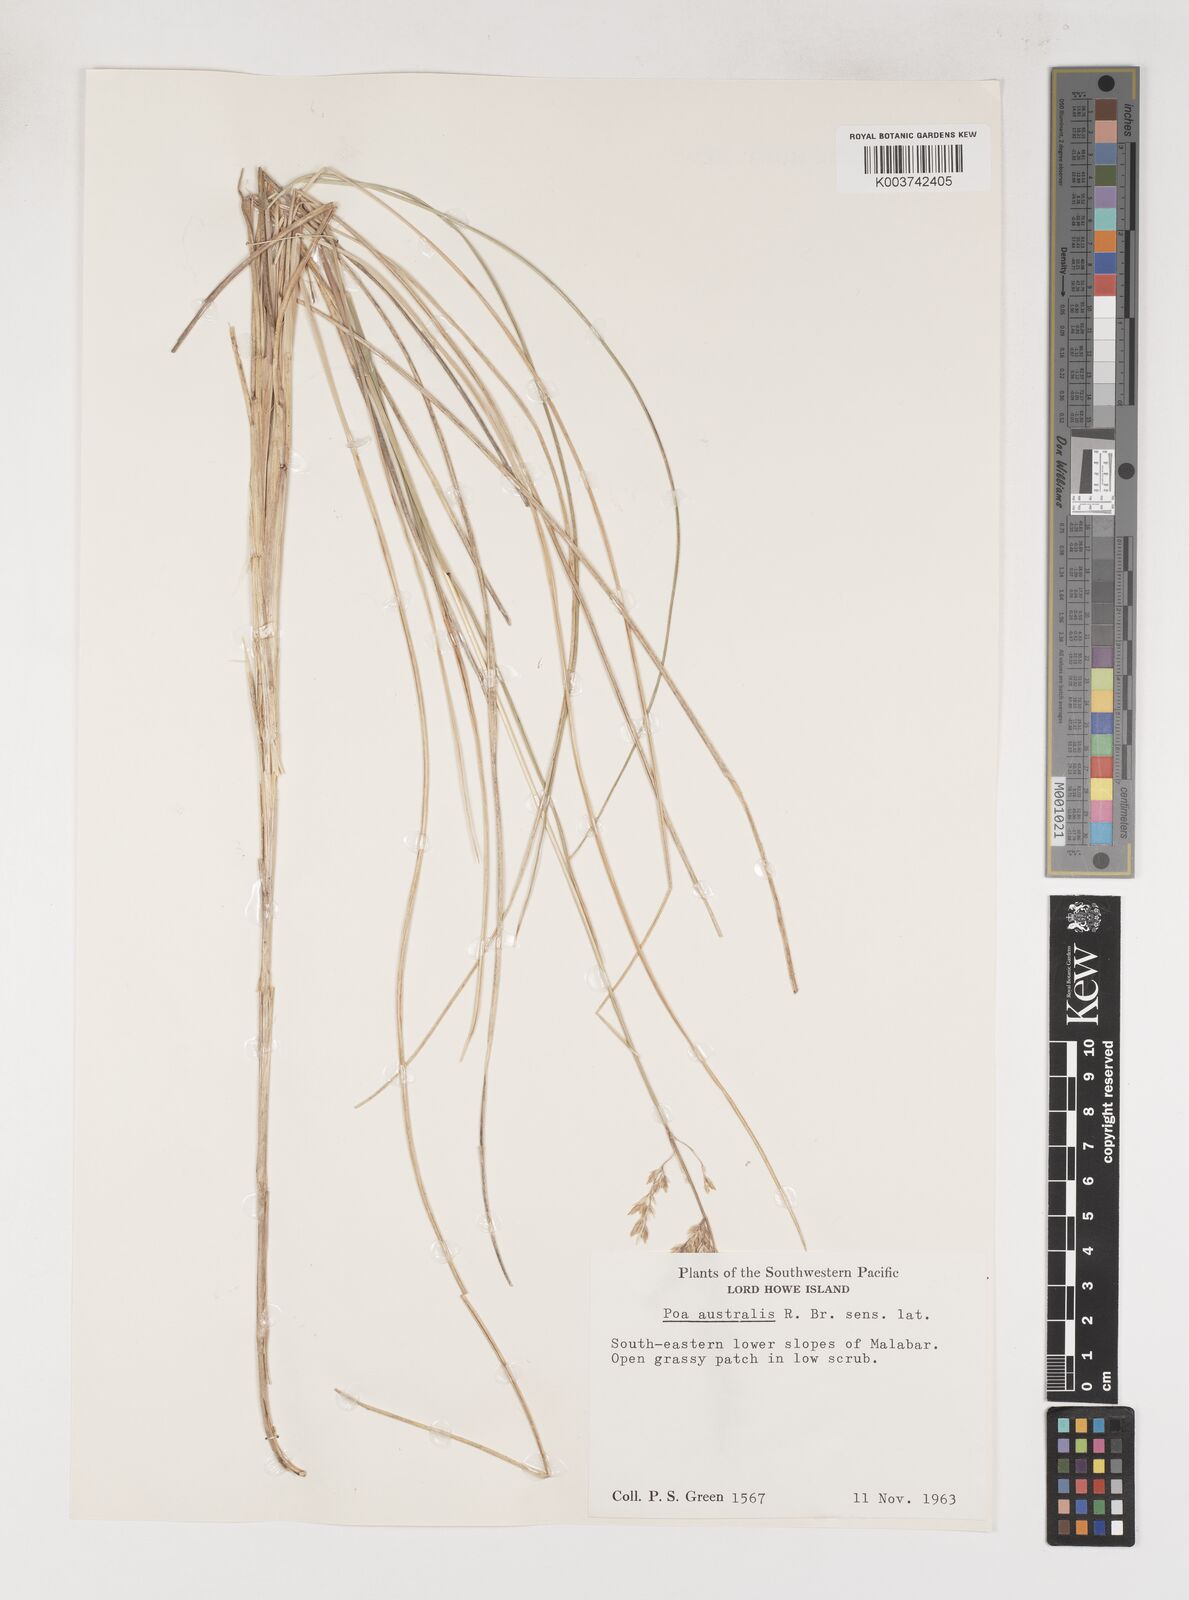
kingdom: Plantae
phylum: Tracheophyta
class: Liliopsida
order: Poales
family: Poaceae
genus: Poa
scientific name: Poa poiformis
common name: Tussock poa
